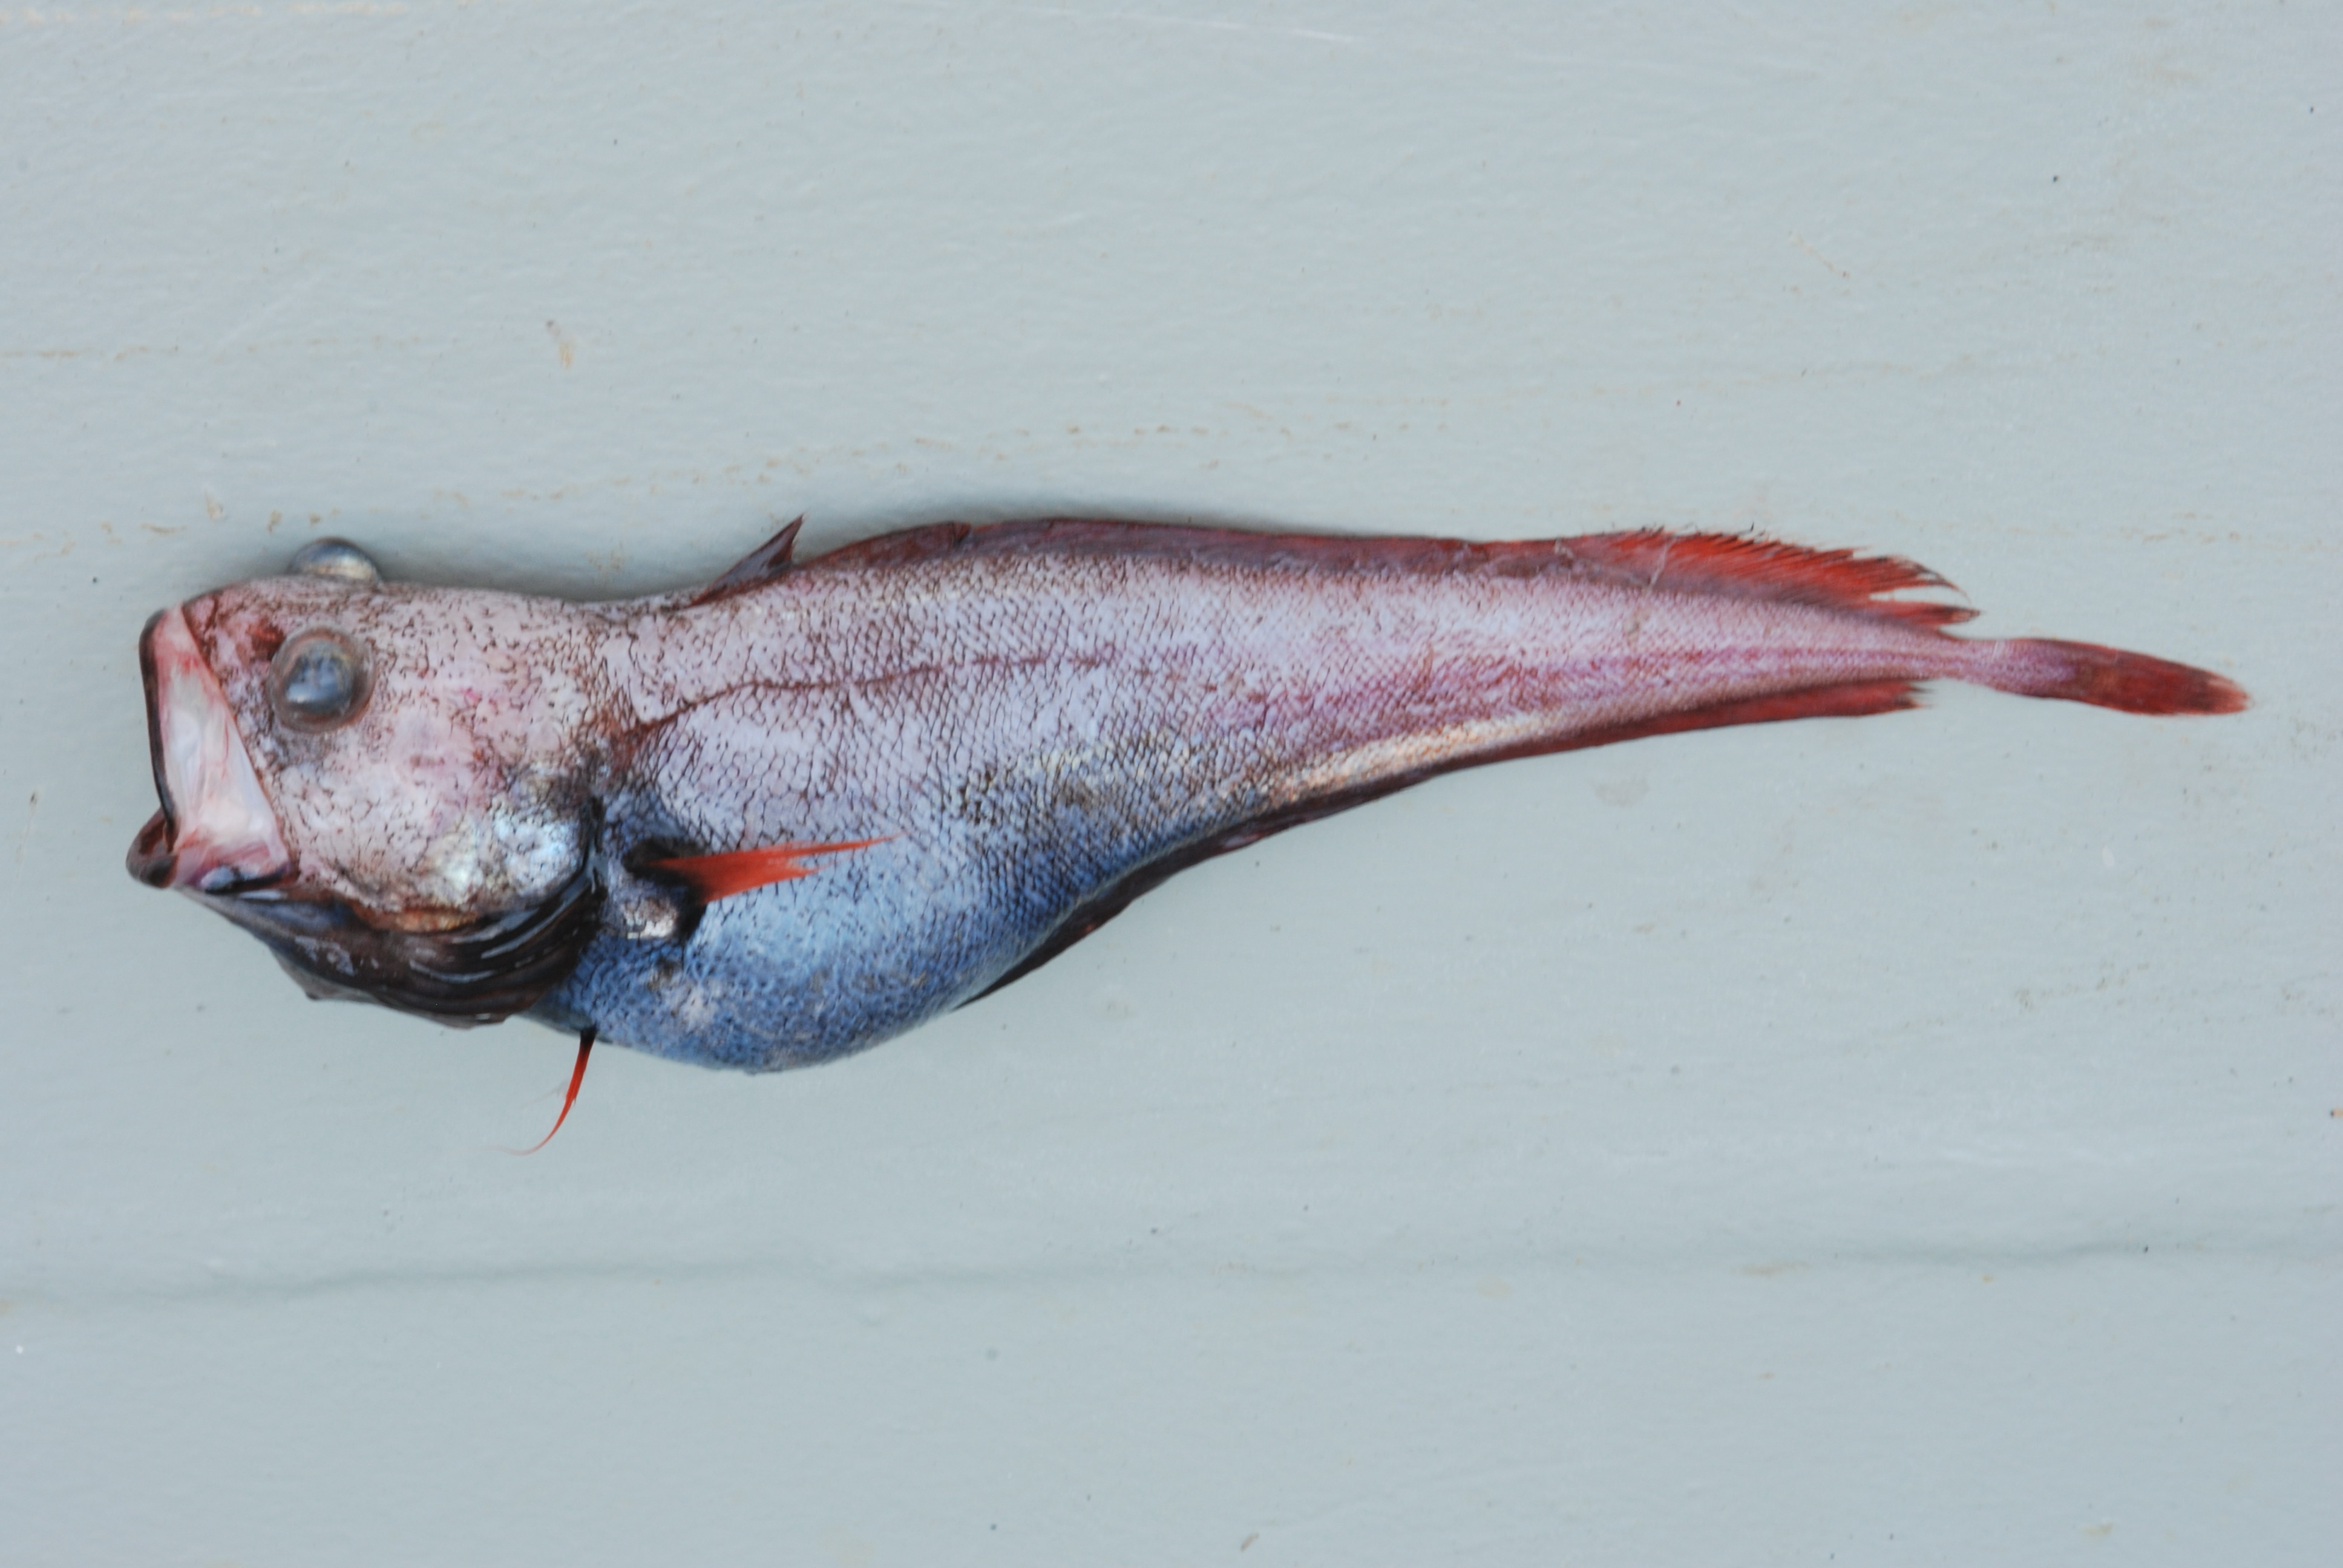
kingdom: Animalia
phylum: Chordata
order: Gadiformes
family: Moridae
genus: Physiculus
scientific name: Physiculus natalensis
